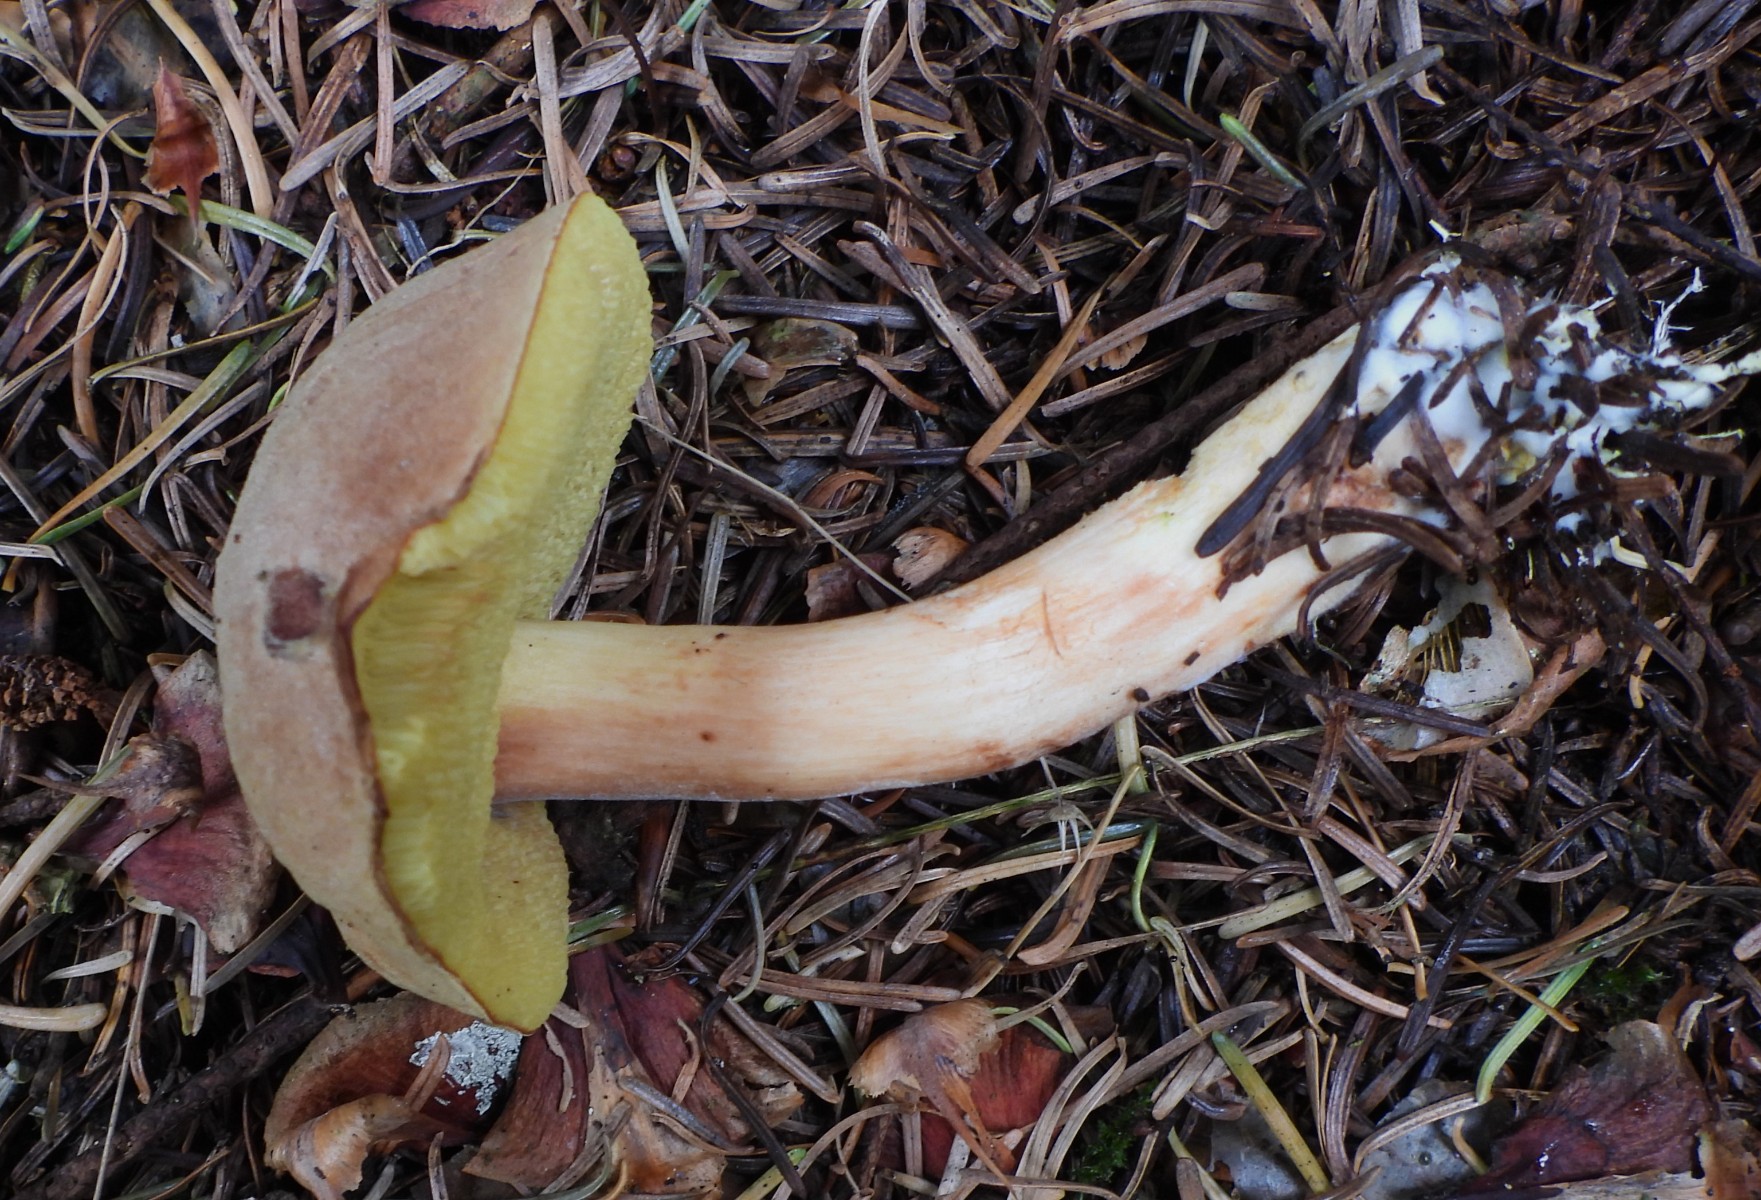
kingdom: Fungi
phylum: Basidiomycota
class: Agaricomycetes
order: Boletales
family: Boletaceae
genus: Xerocomus
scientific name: Xerocomus ferrugineus
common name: vaskeskinds-rørhat
